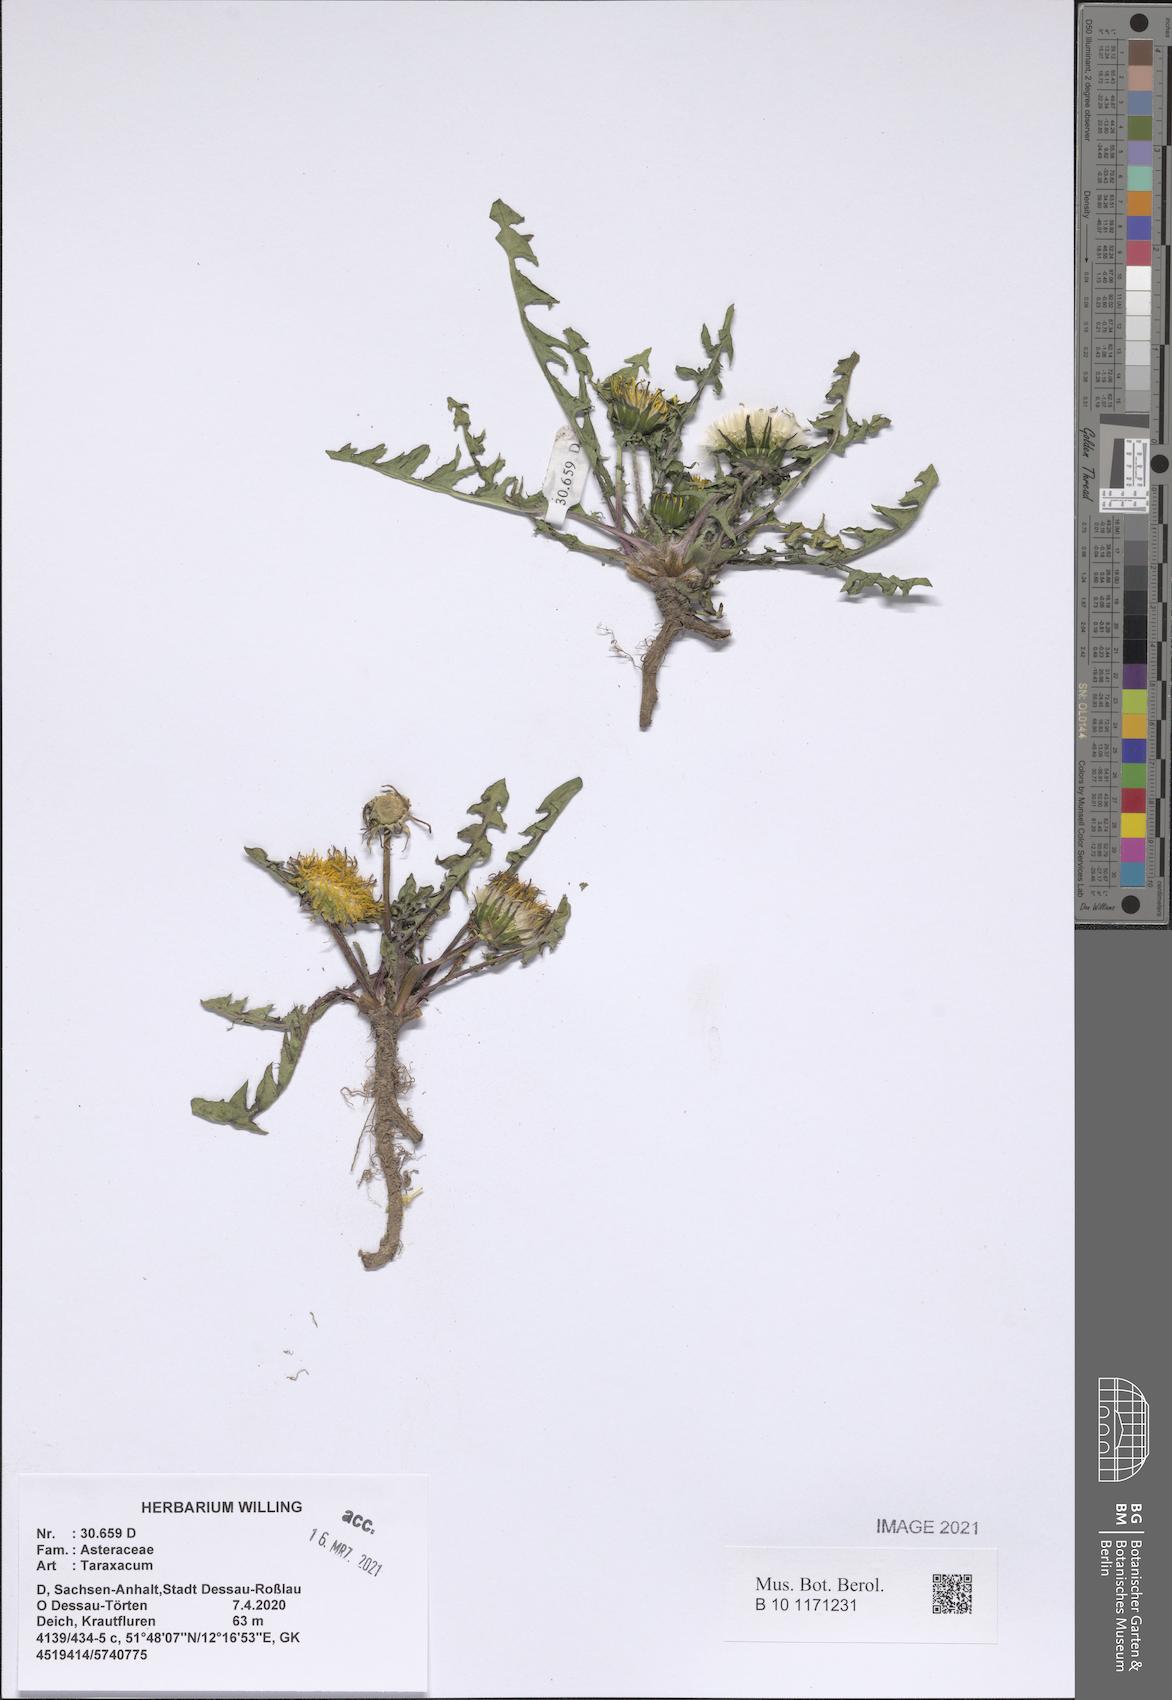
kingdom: Plantae
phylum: Tracheophyta
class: Magnoliopsida
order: Asterales
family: Asteraceae
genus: Taraxacum
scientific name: Taraxacum
